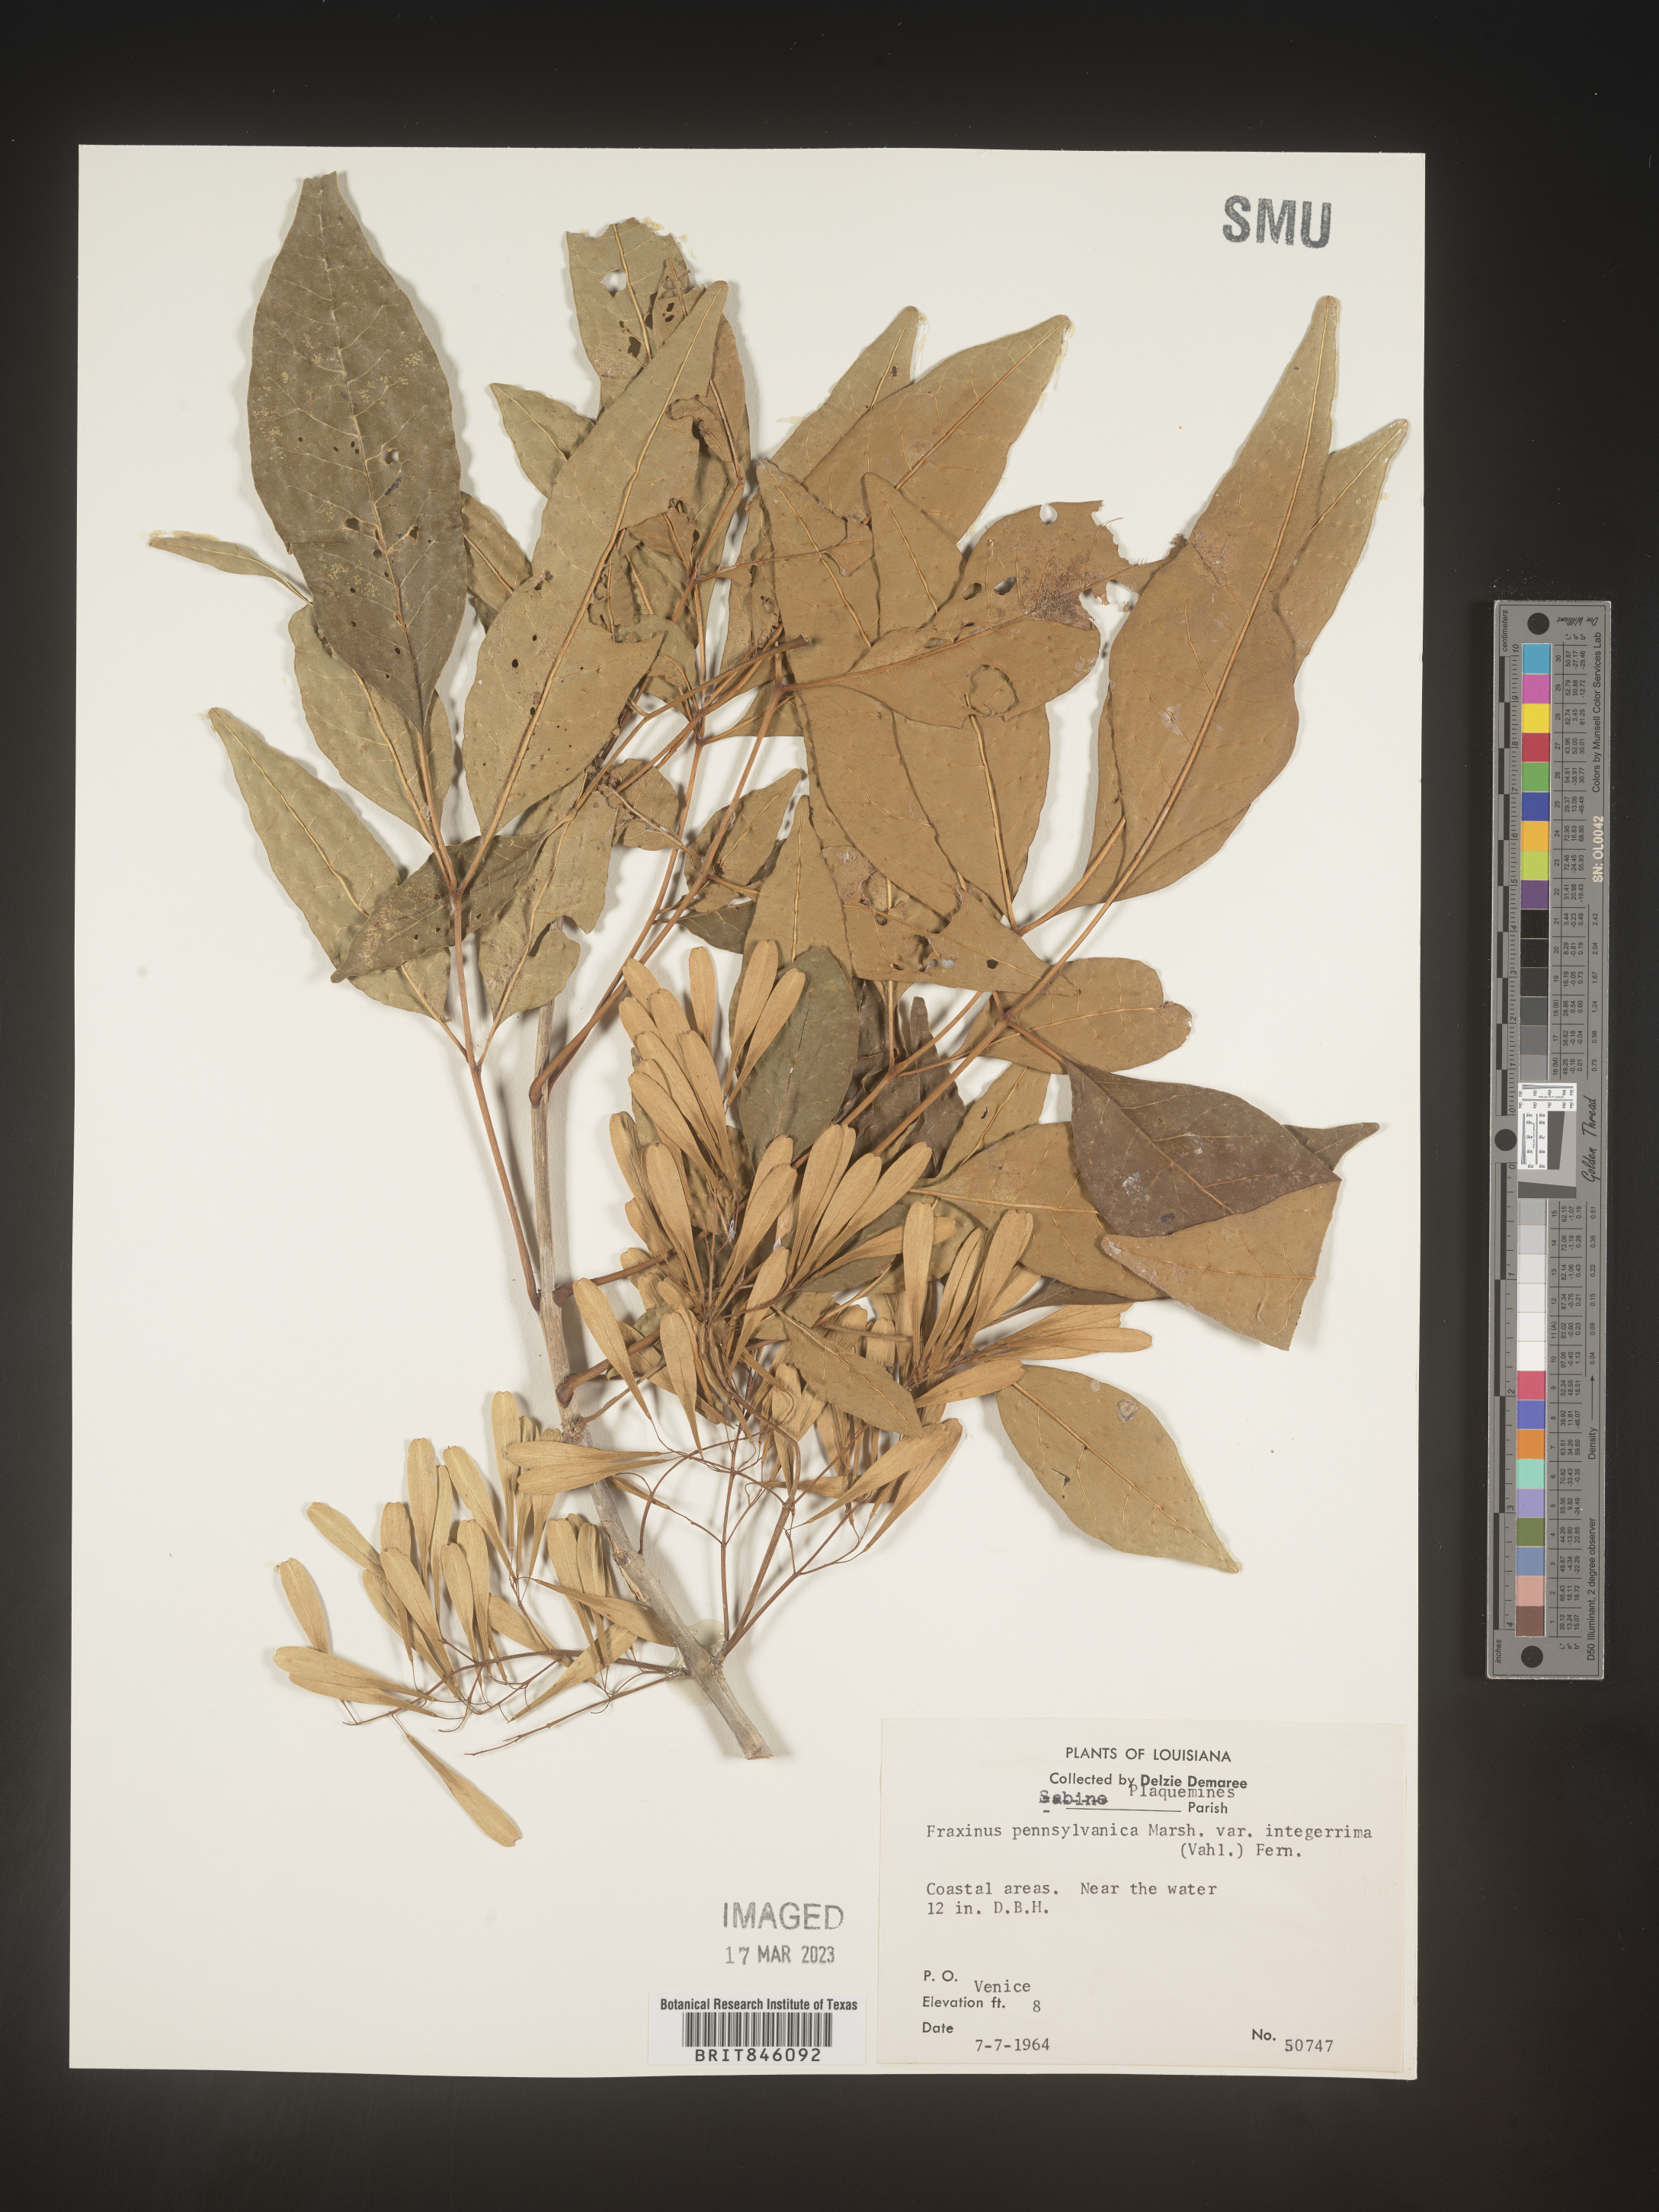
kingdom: Plantae
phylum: Tracheophyta
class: Magnoliopsida
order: Lamiales
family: Oleaceae
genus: Fraxinus
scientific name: Fraxinus pennsylvanica
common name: Green ash
